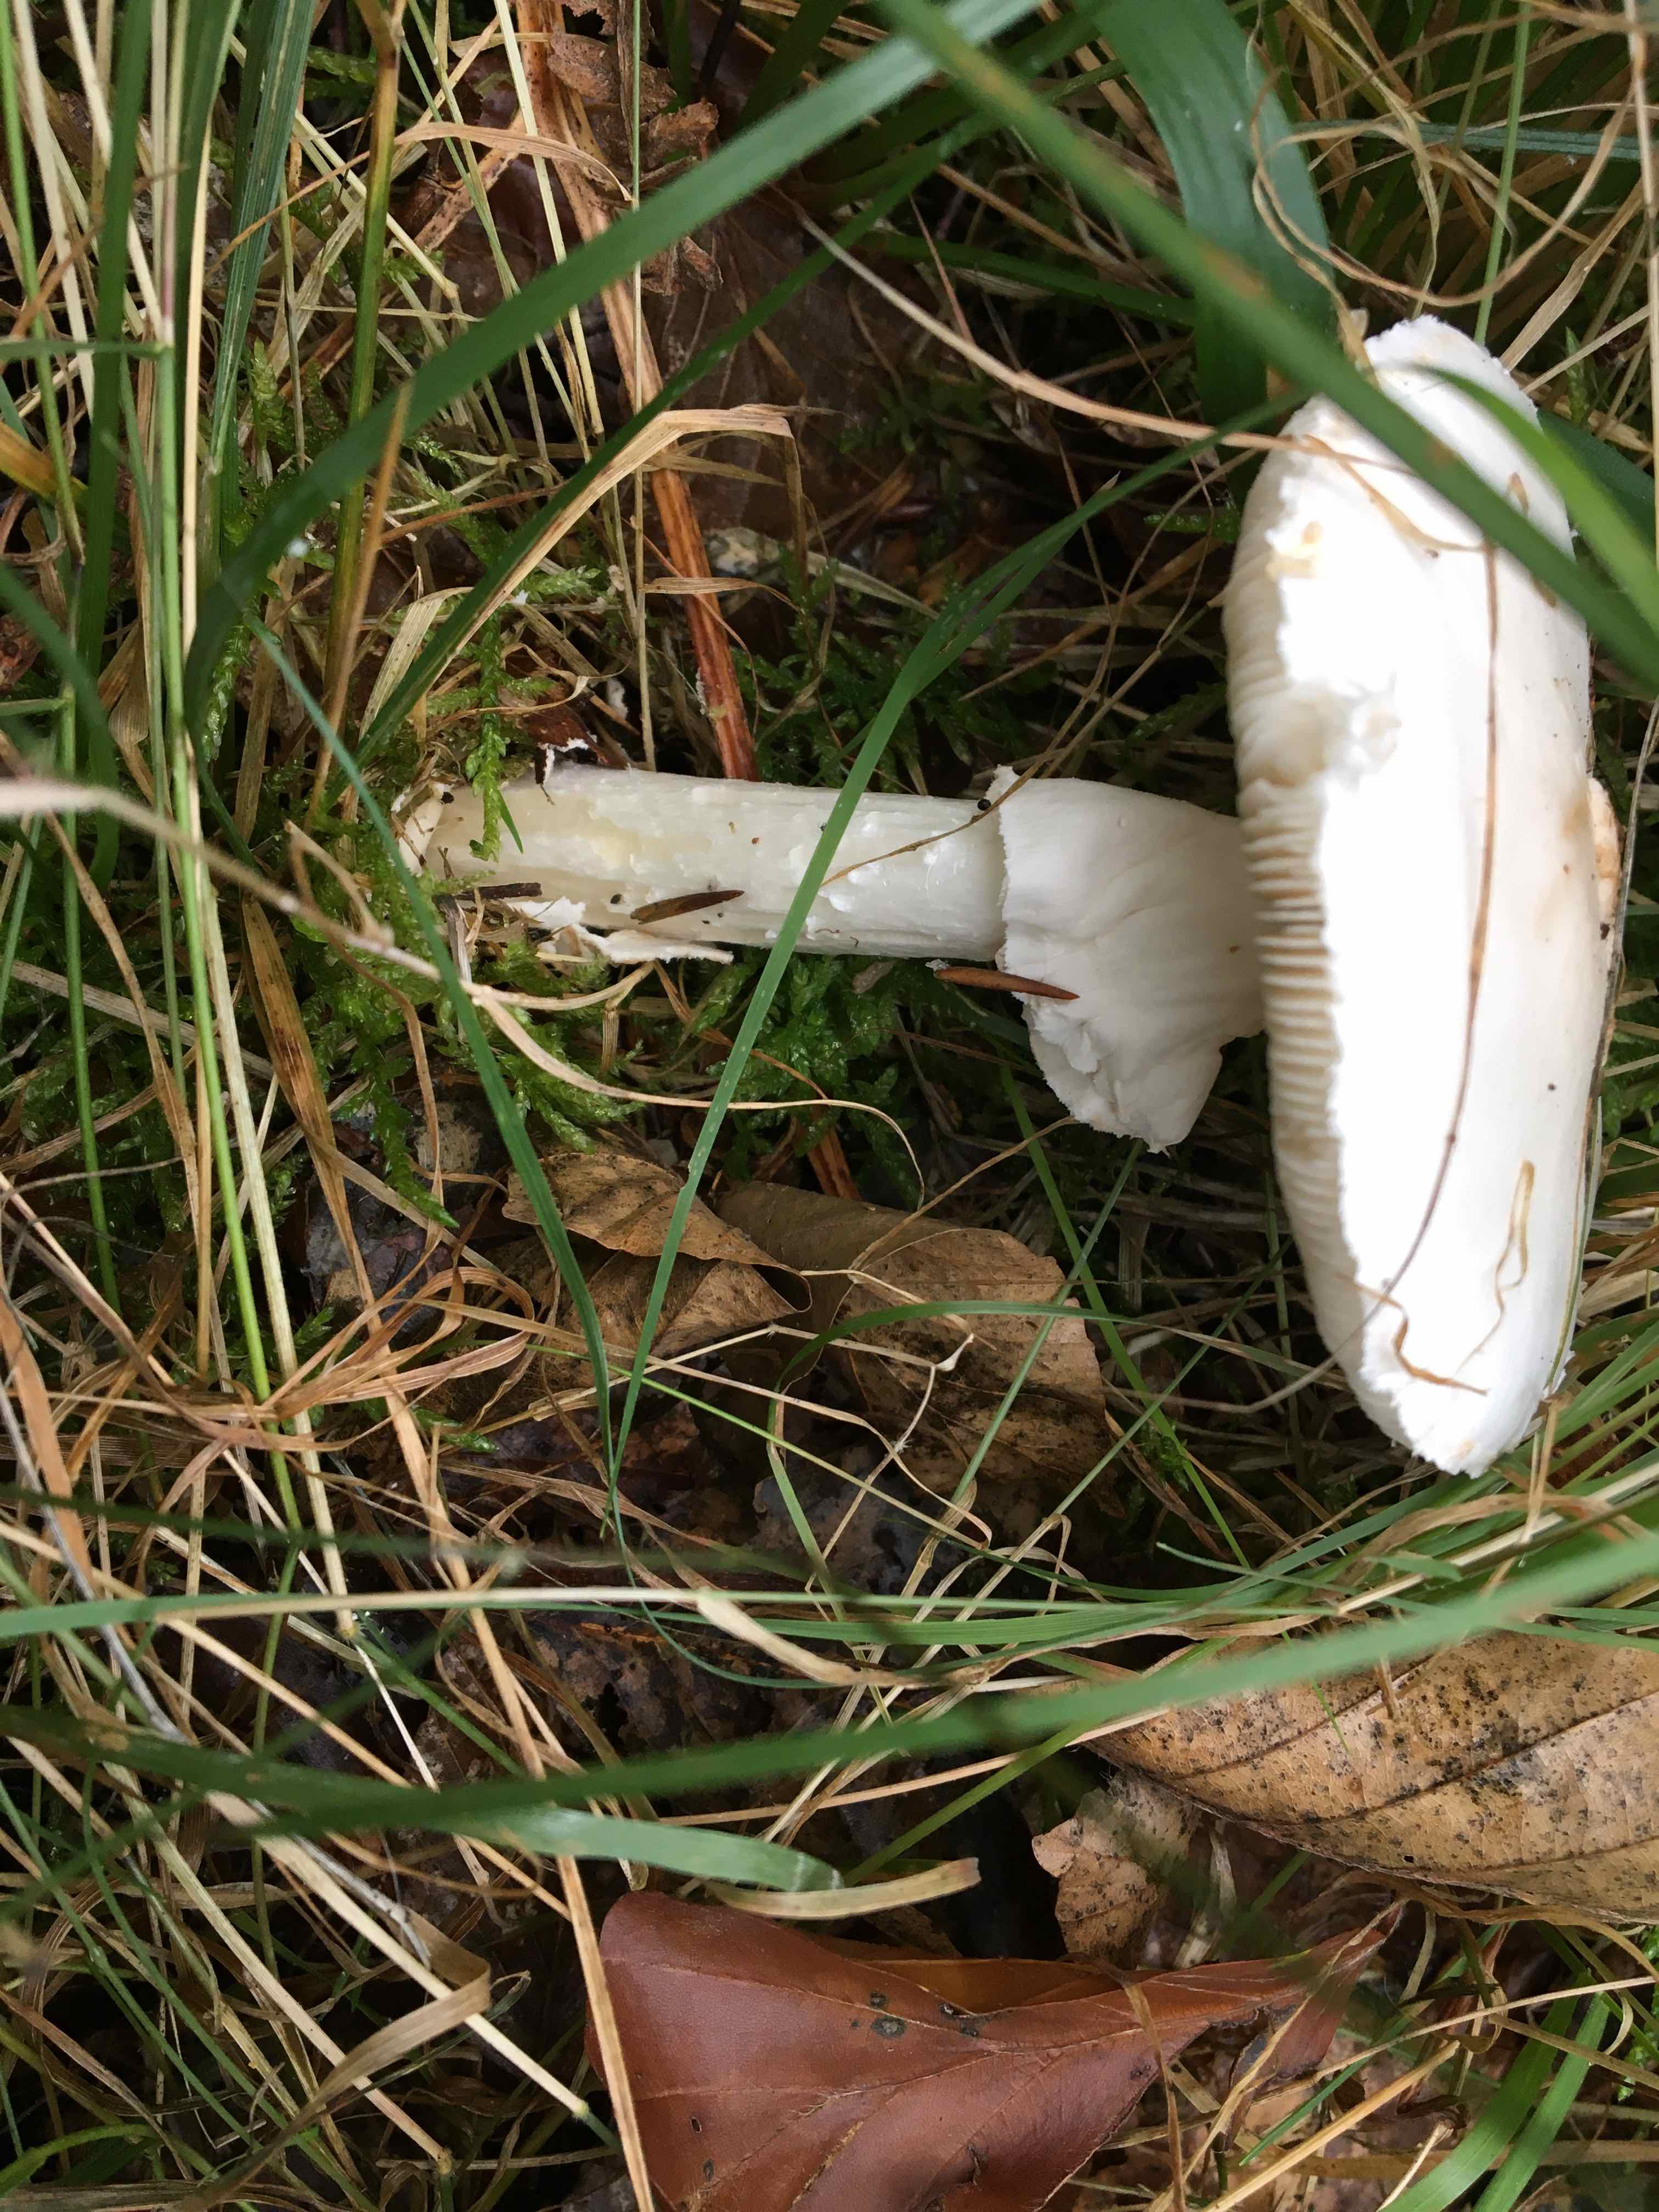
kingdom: Fungi
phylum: Basidiomycota
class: Agaricomycetes
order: Agaricales
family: Amanitaceae
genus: Amanita
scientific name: Amanita citrina
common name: False death-cap
